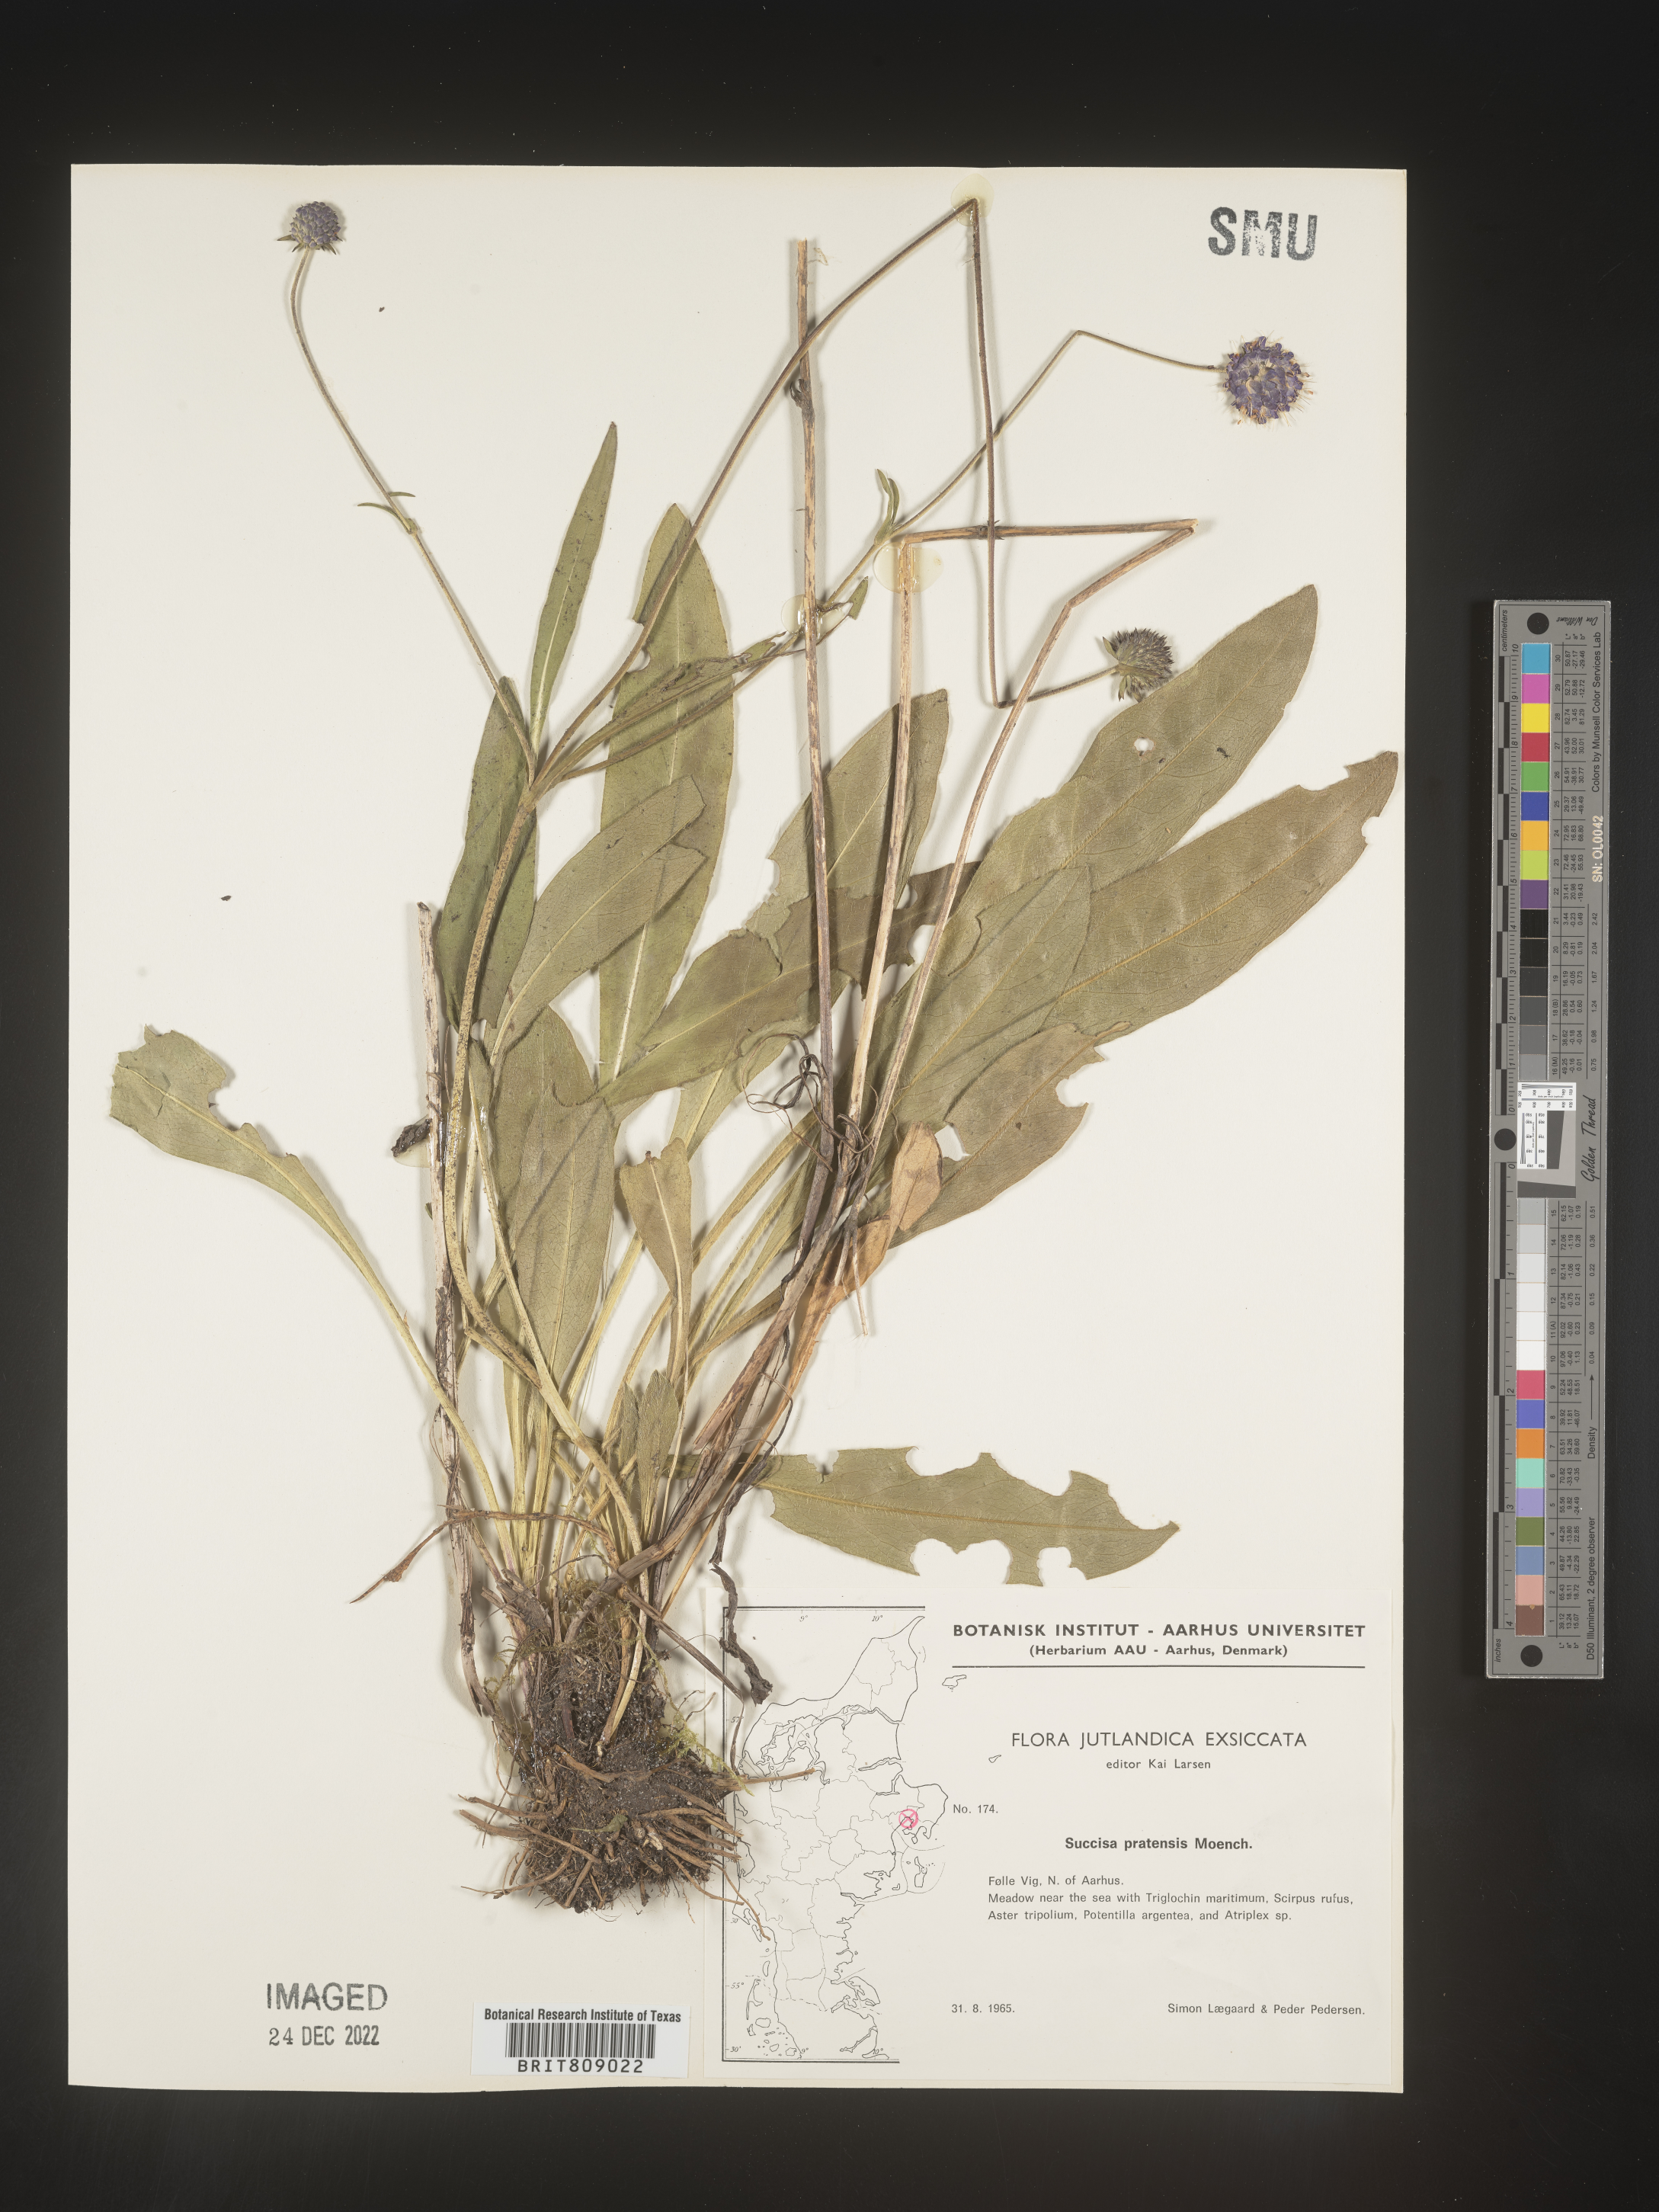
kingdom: Plantae
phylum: Tracheophyta
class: Magnoliopsida
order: Dipsacales
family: Caprifoliaceae
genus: Succisa
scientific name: Succisa
